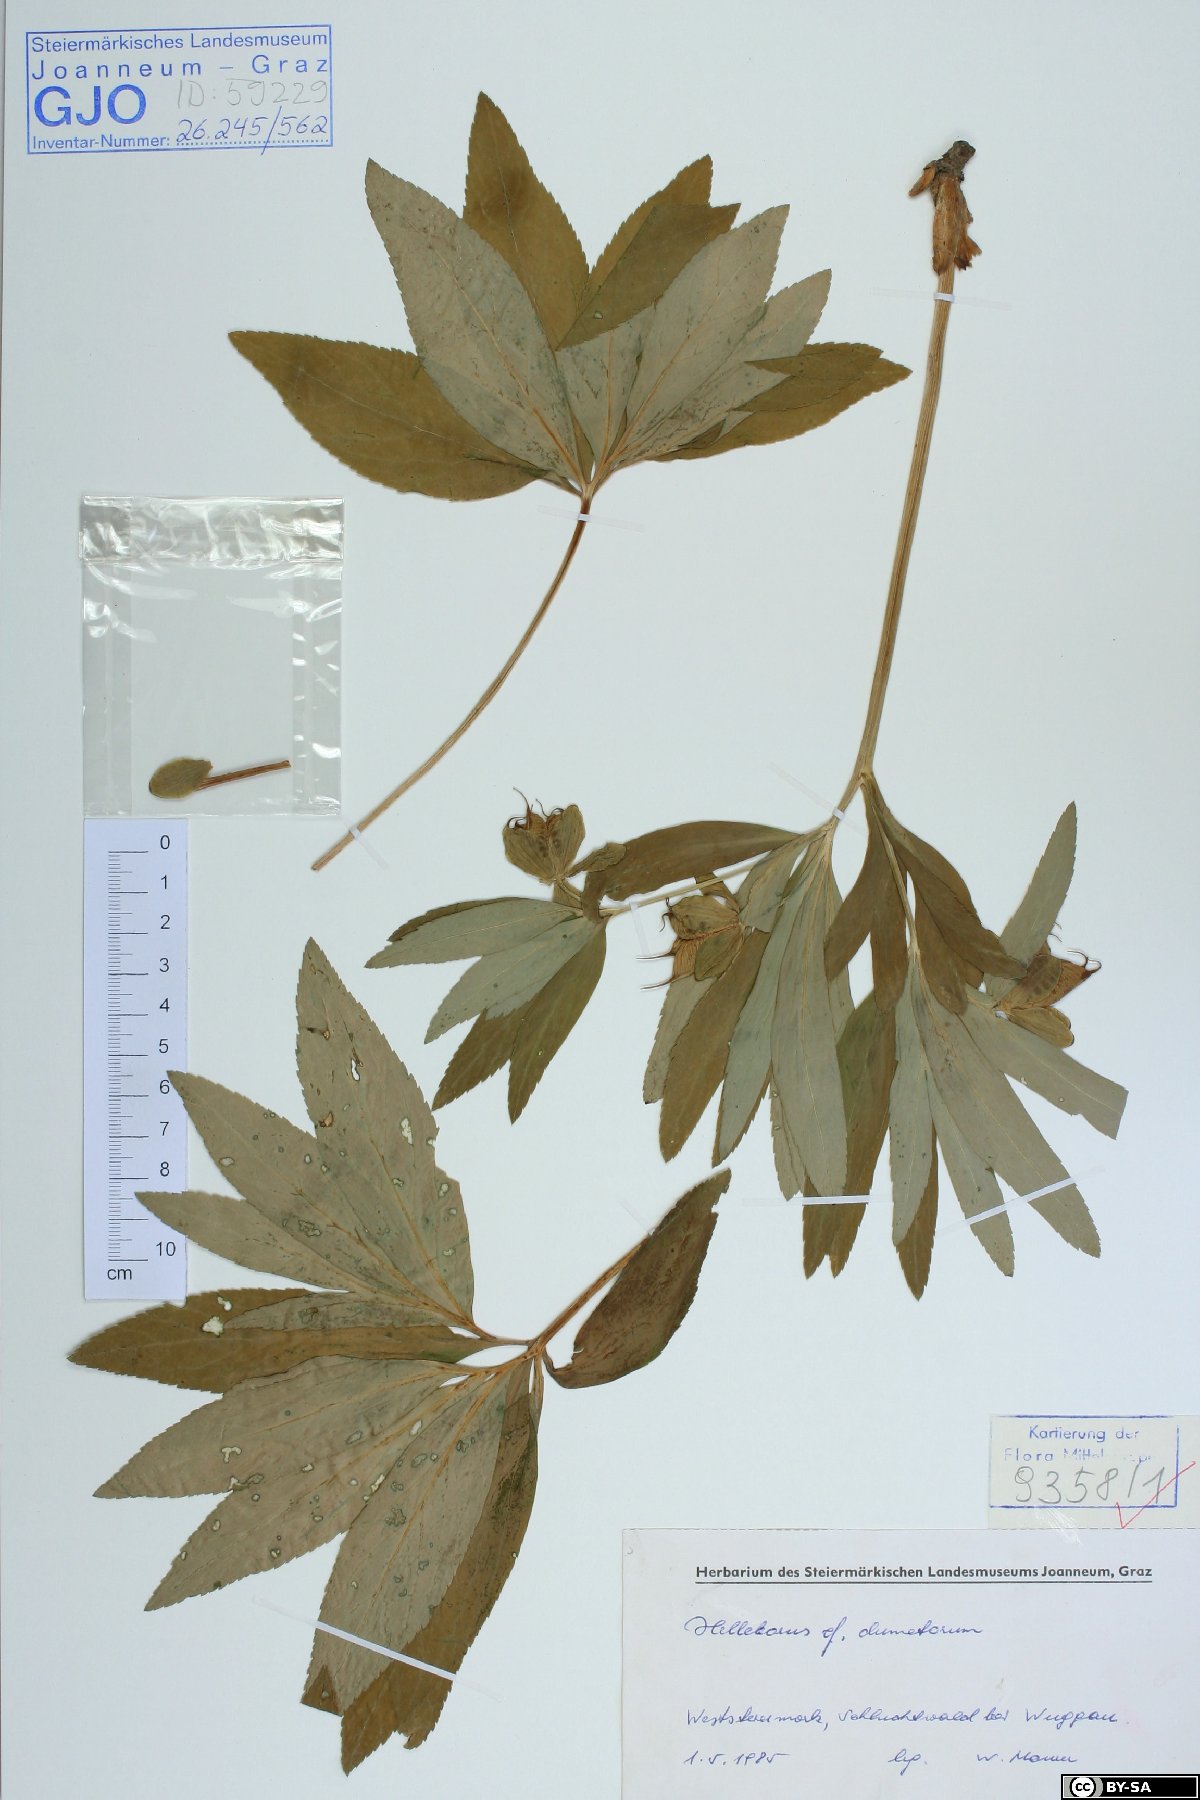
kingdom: Plantae
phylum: Tracheophyta
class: Magnoliopsida
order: Ranunculales
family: Ranunculaceae
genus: Helleborus
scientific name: Helleborus dumetorum
